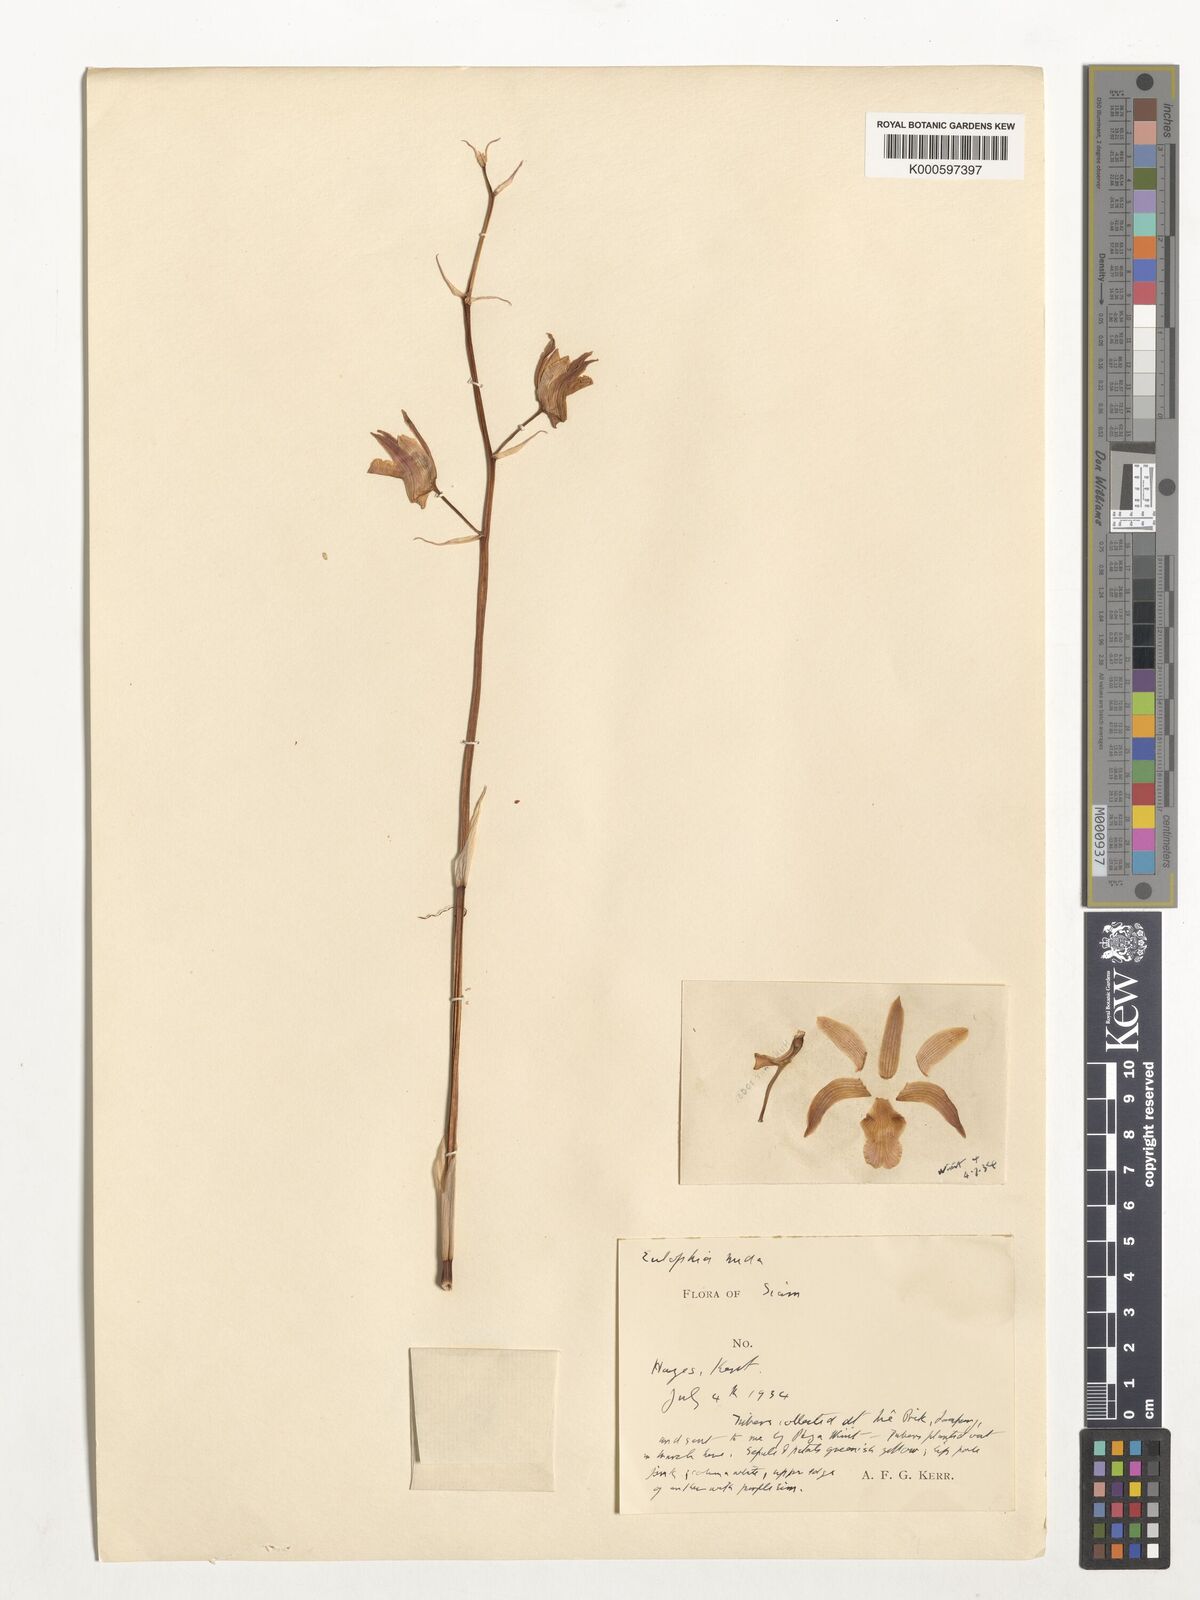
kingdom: Plantae
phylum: Tracheophyta
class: Liliopsida
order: Asparagales
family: Orchidaceae
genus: Eulophia
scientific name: Eulophia nuda
